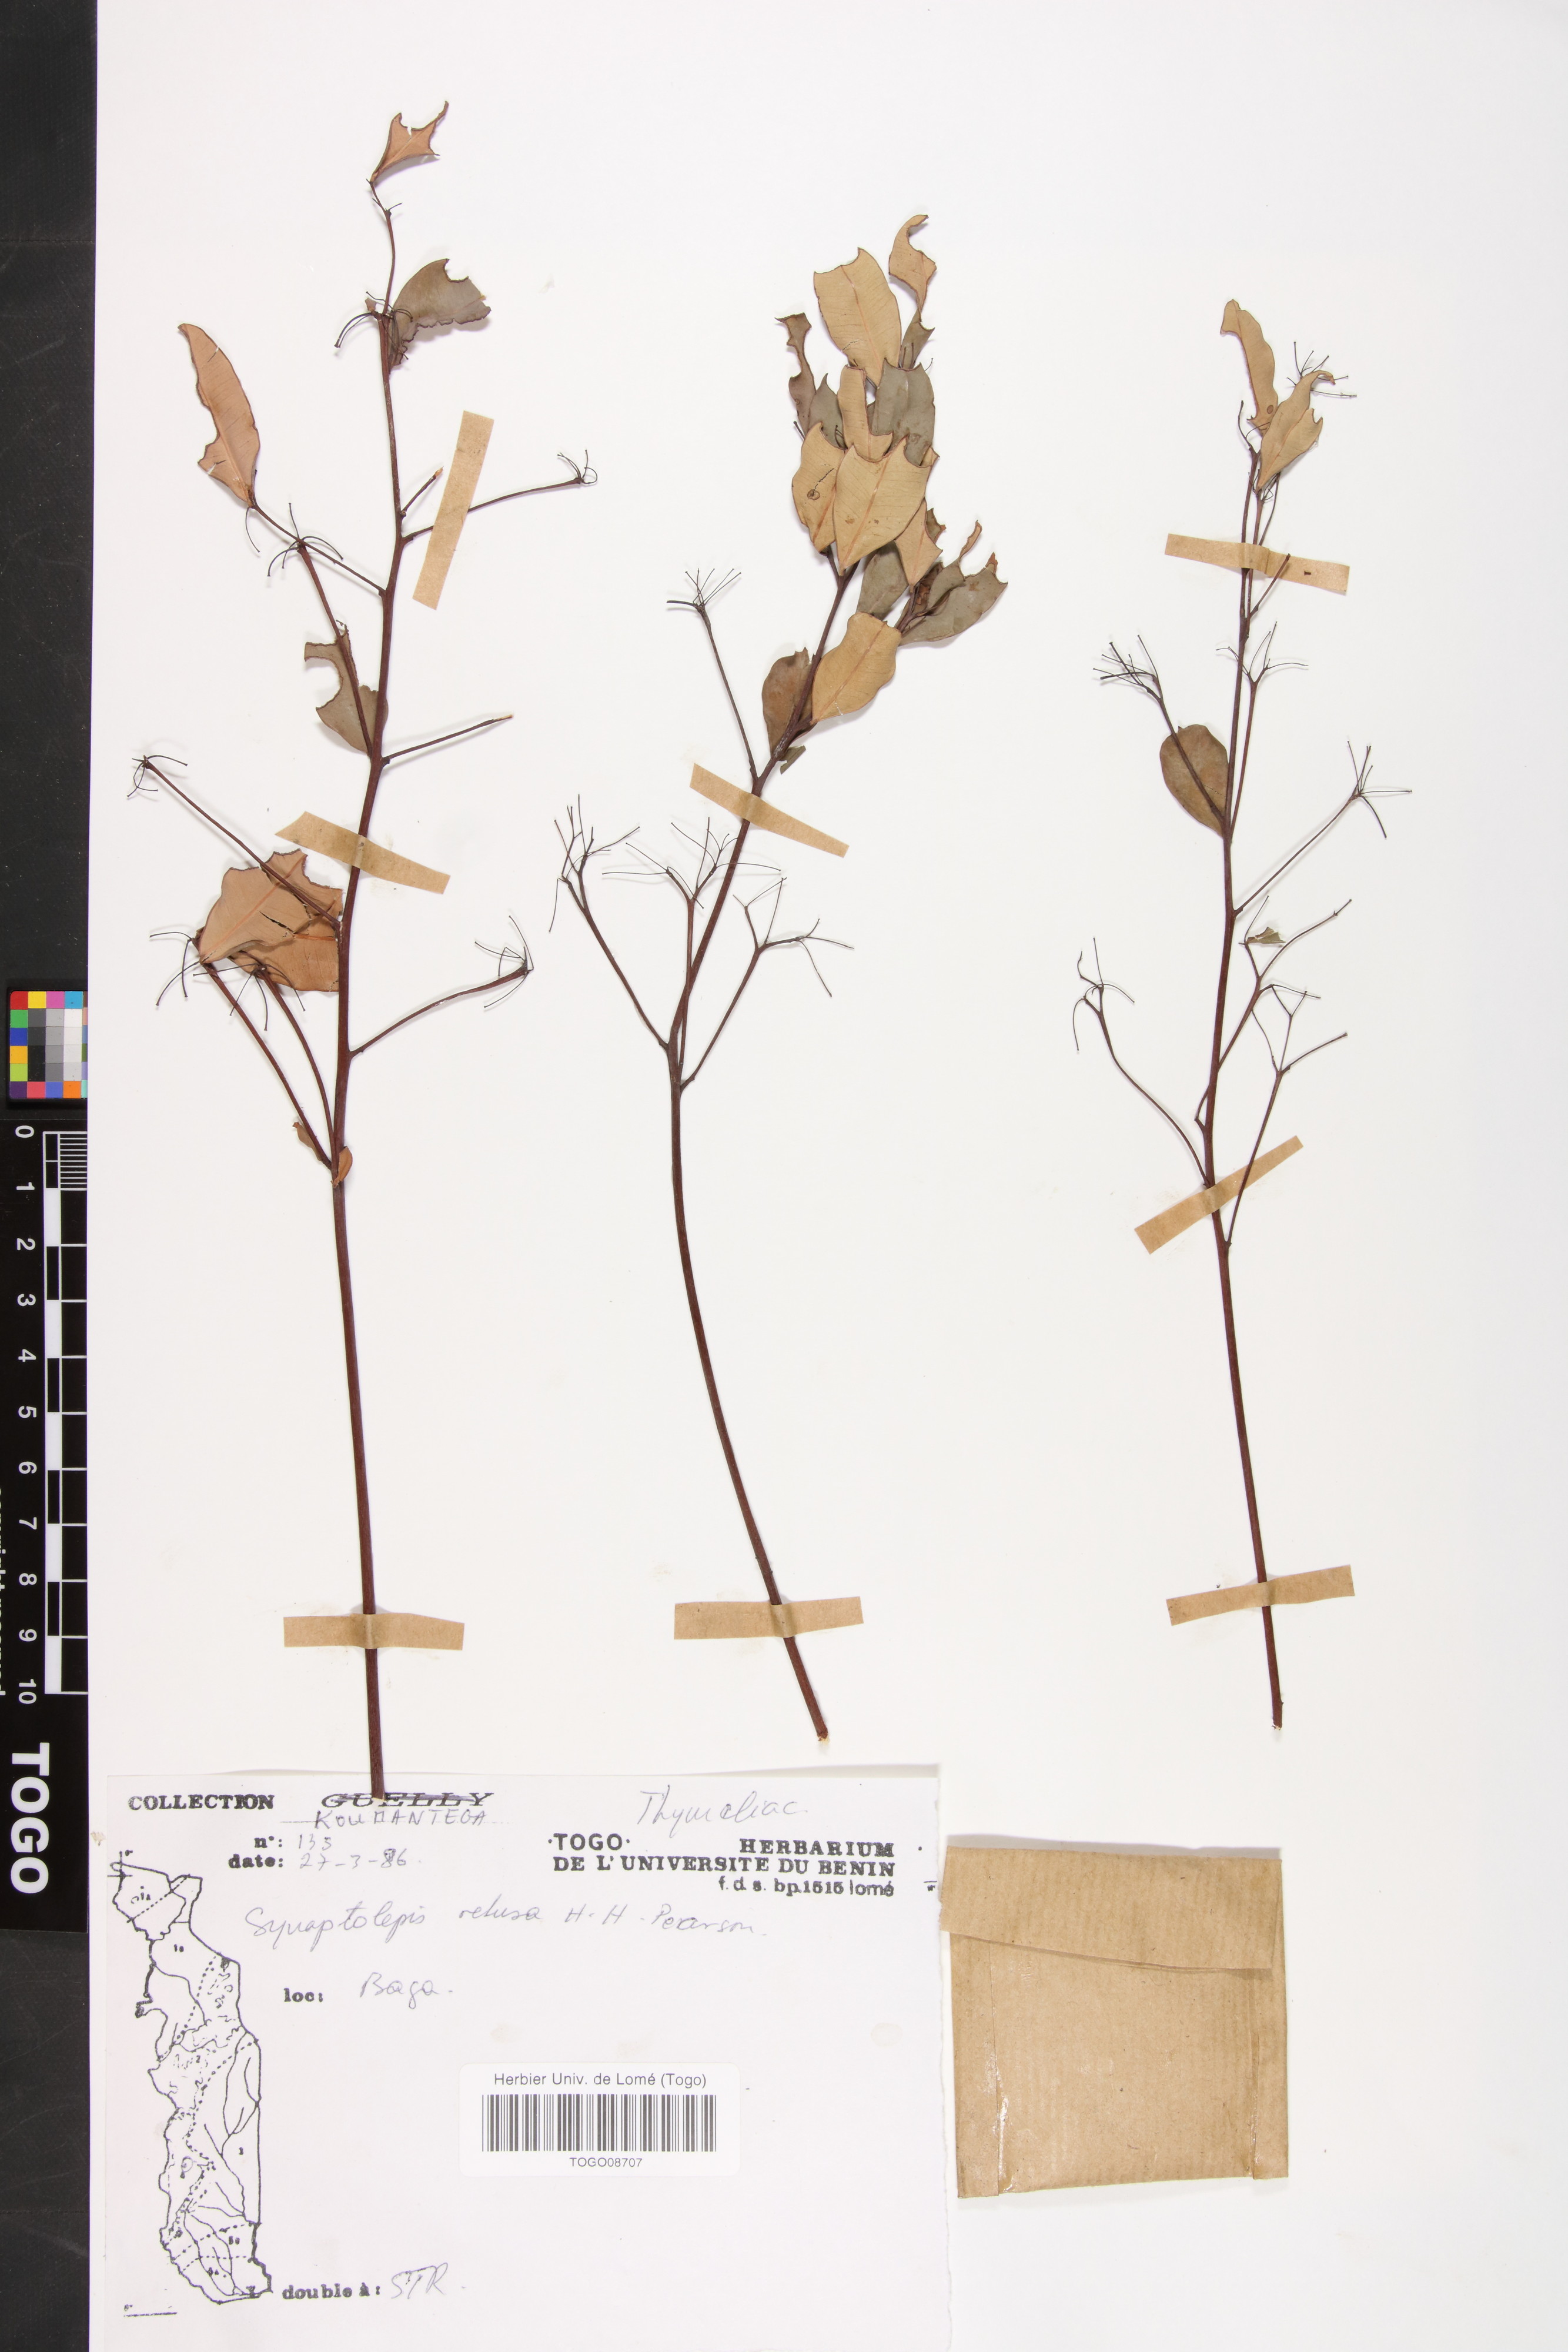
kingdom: Plantae
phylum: Tracheophyta
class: Magnoliopsida
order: Malvales
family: Thymelaeaceae
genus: Synaptolepis
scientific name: Synaptolepis retusa
